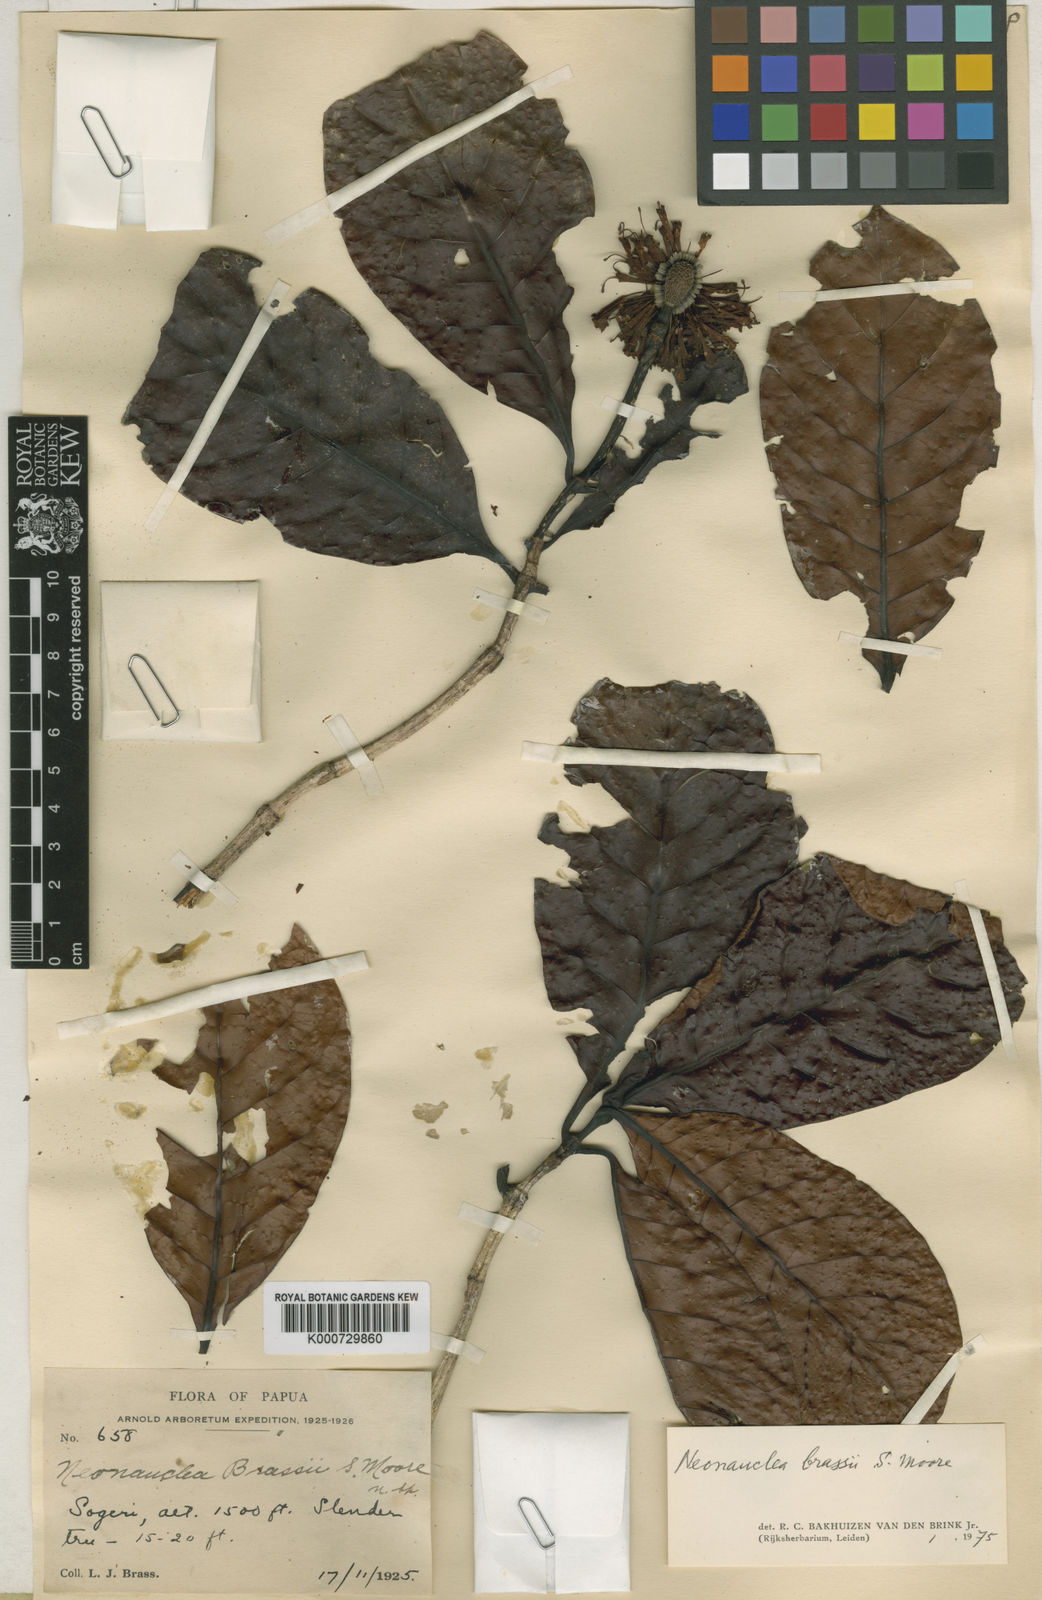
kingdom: Plantae
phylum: Tracheophyta
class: Magnoliopsida
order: Gentianales
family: Rubiaceae
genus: Neonauclea
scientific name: Neonauclea brassii
